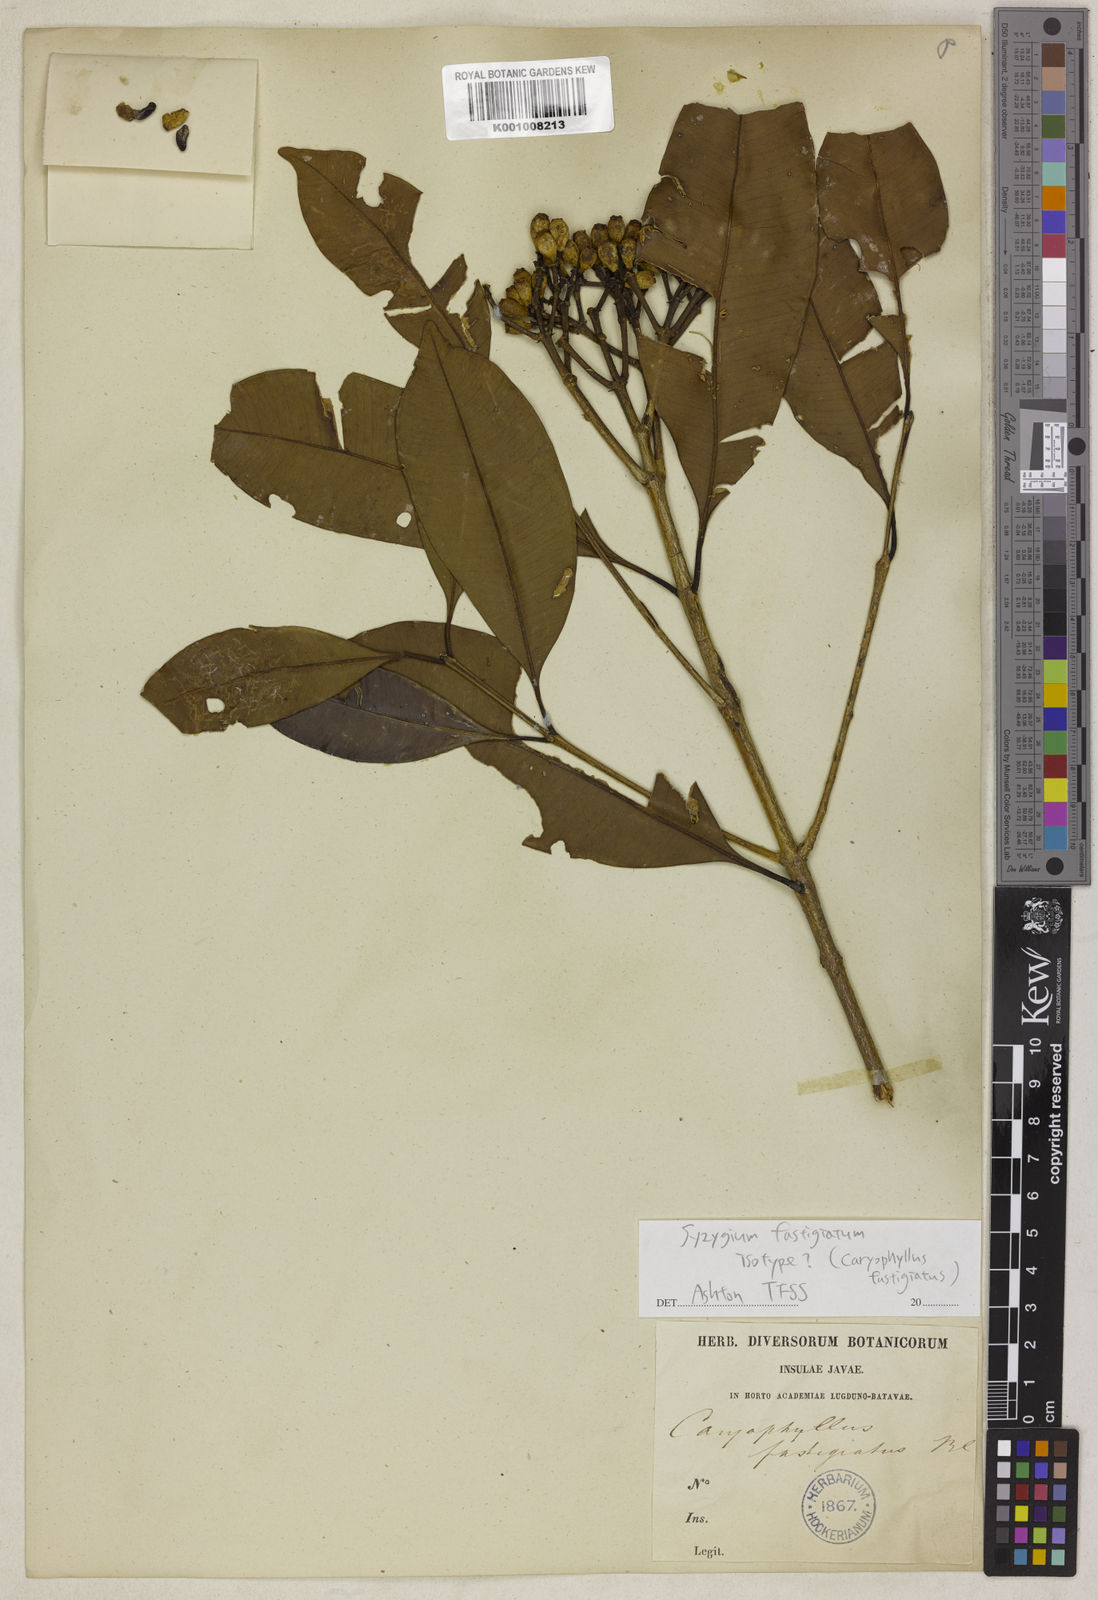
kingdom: Plantae
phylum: Tracheophyta
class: Magnoliopsida
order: Myrtales
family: Myrtaceae
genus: Syzygium
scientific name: Syzygium fastigiatum
